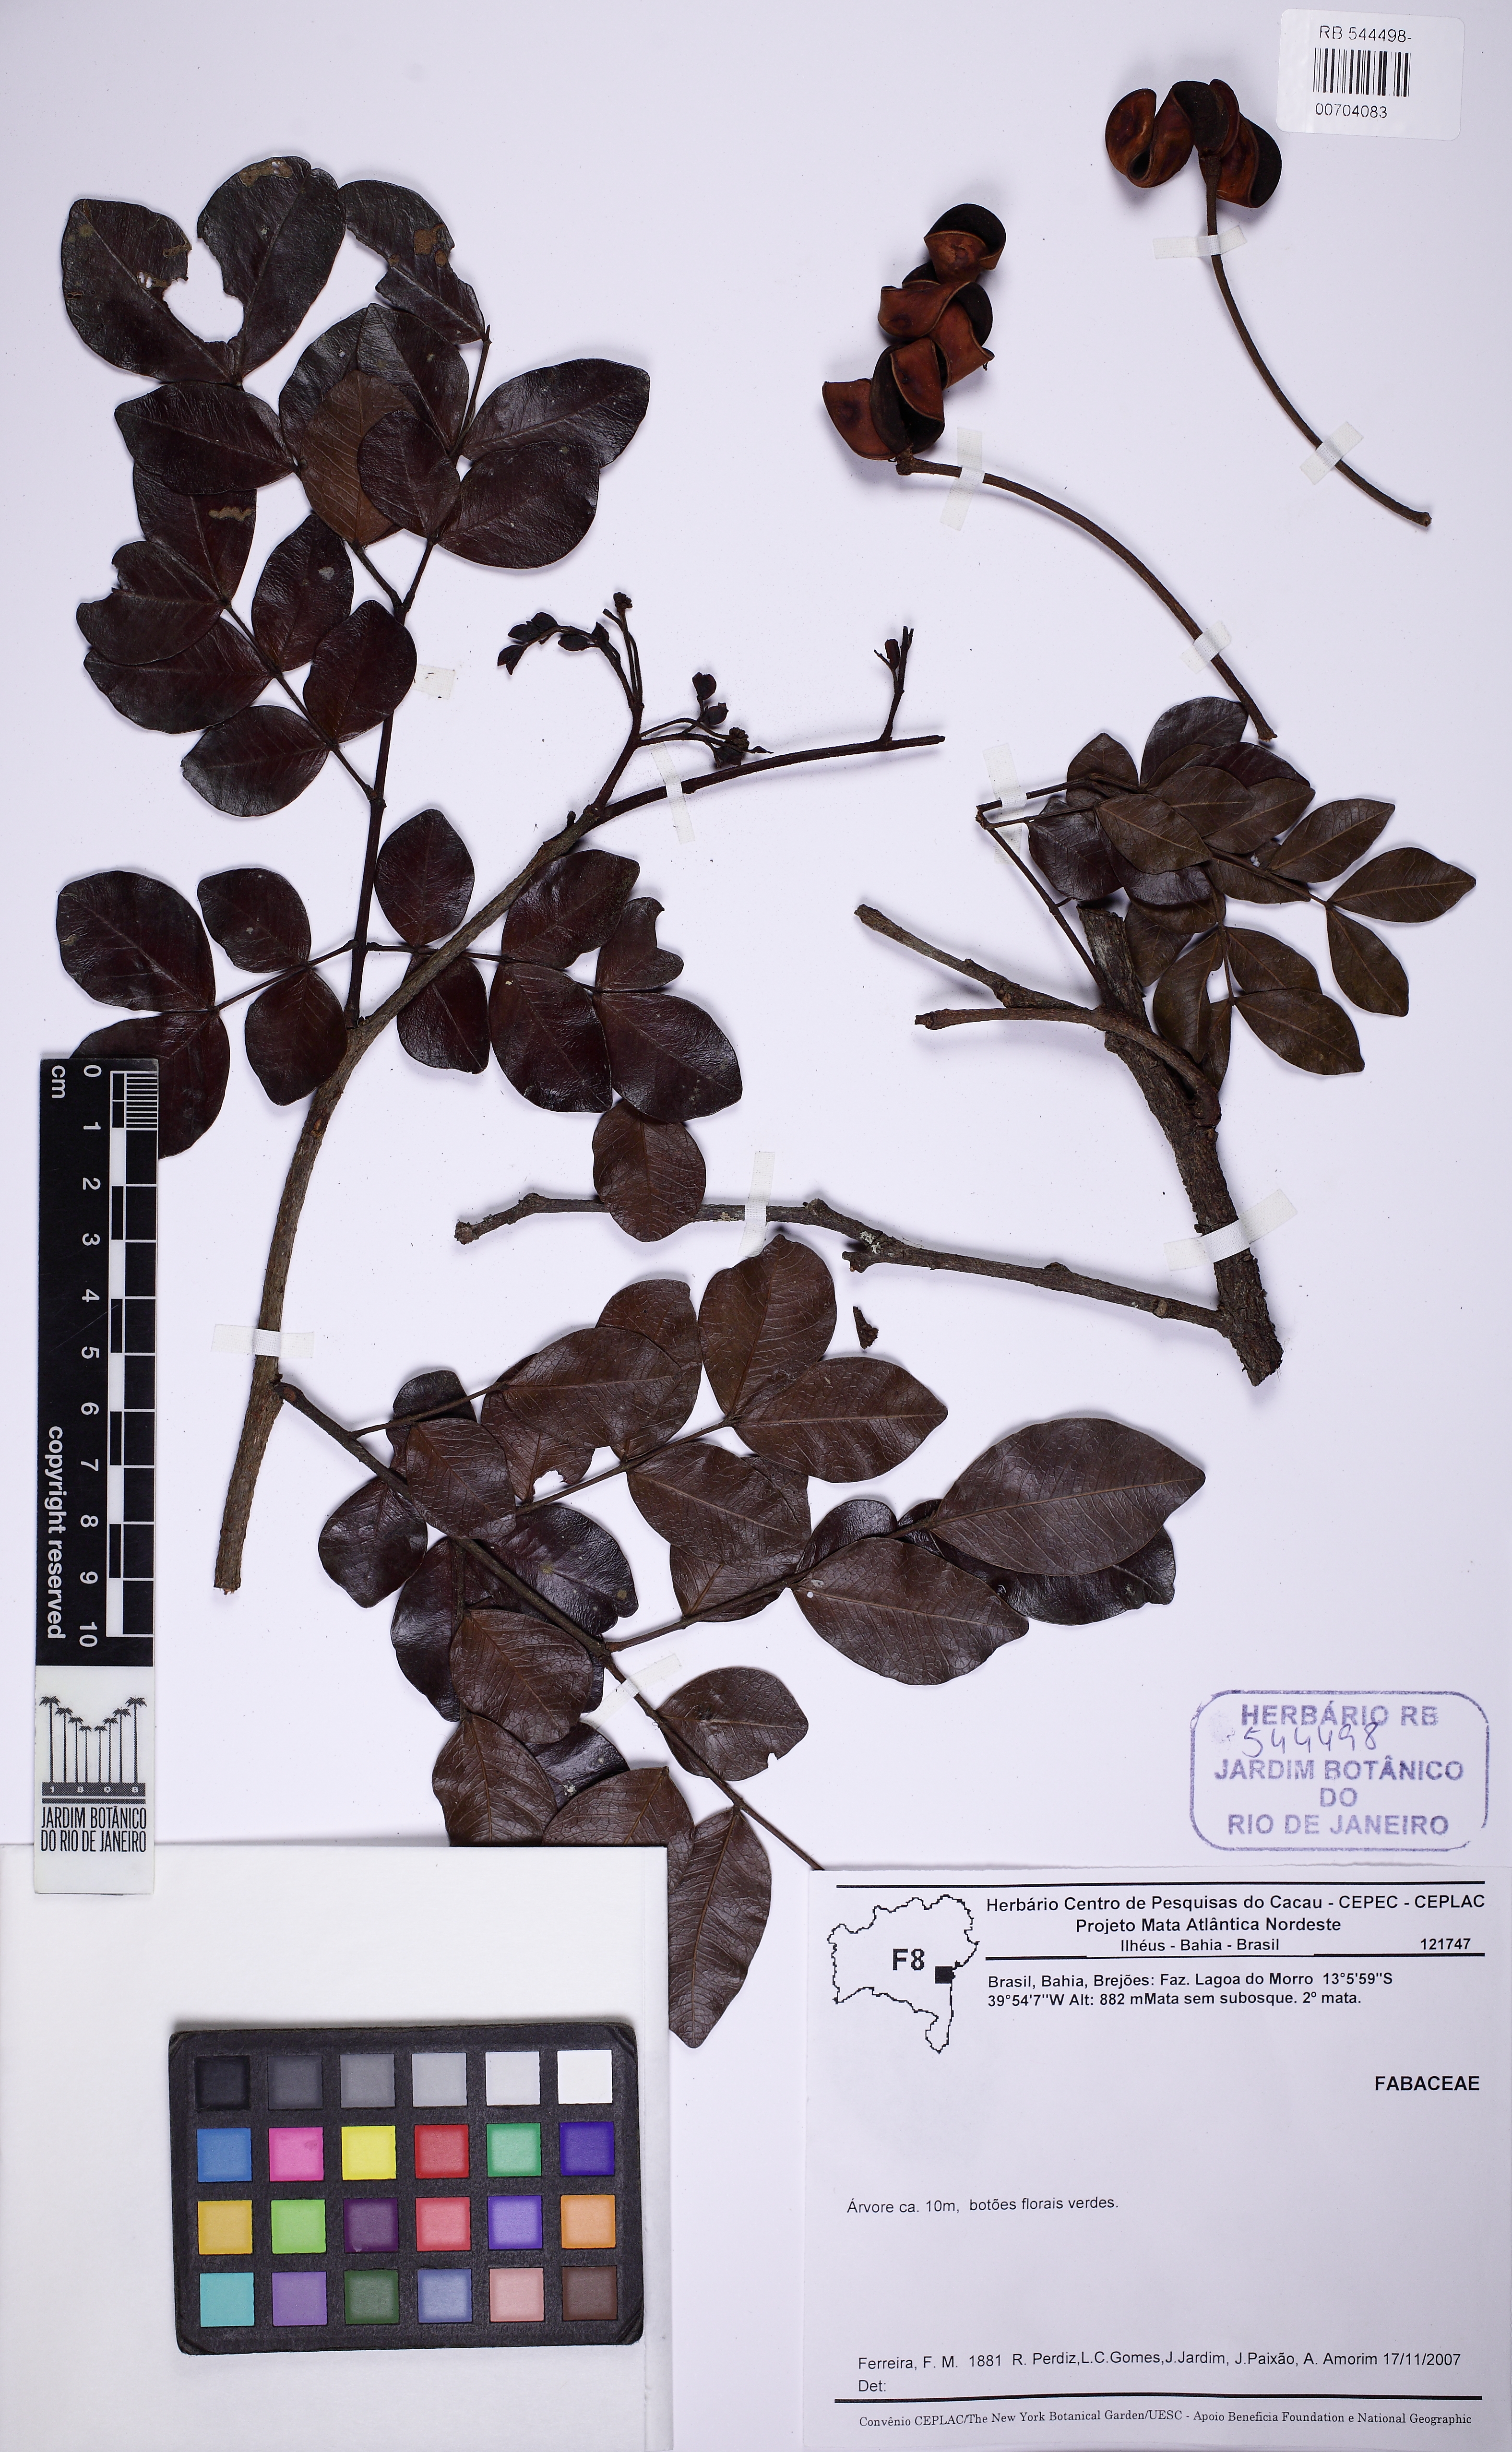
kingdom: Plantae
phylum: Tracheophyta
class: Magnoliopsida
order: Fabales
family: Fabaceae
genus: Abarema
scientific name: Abarema cochliacarpos
